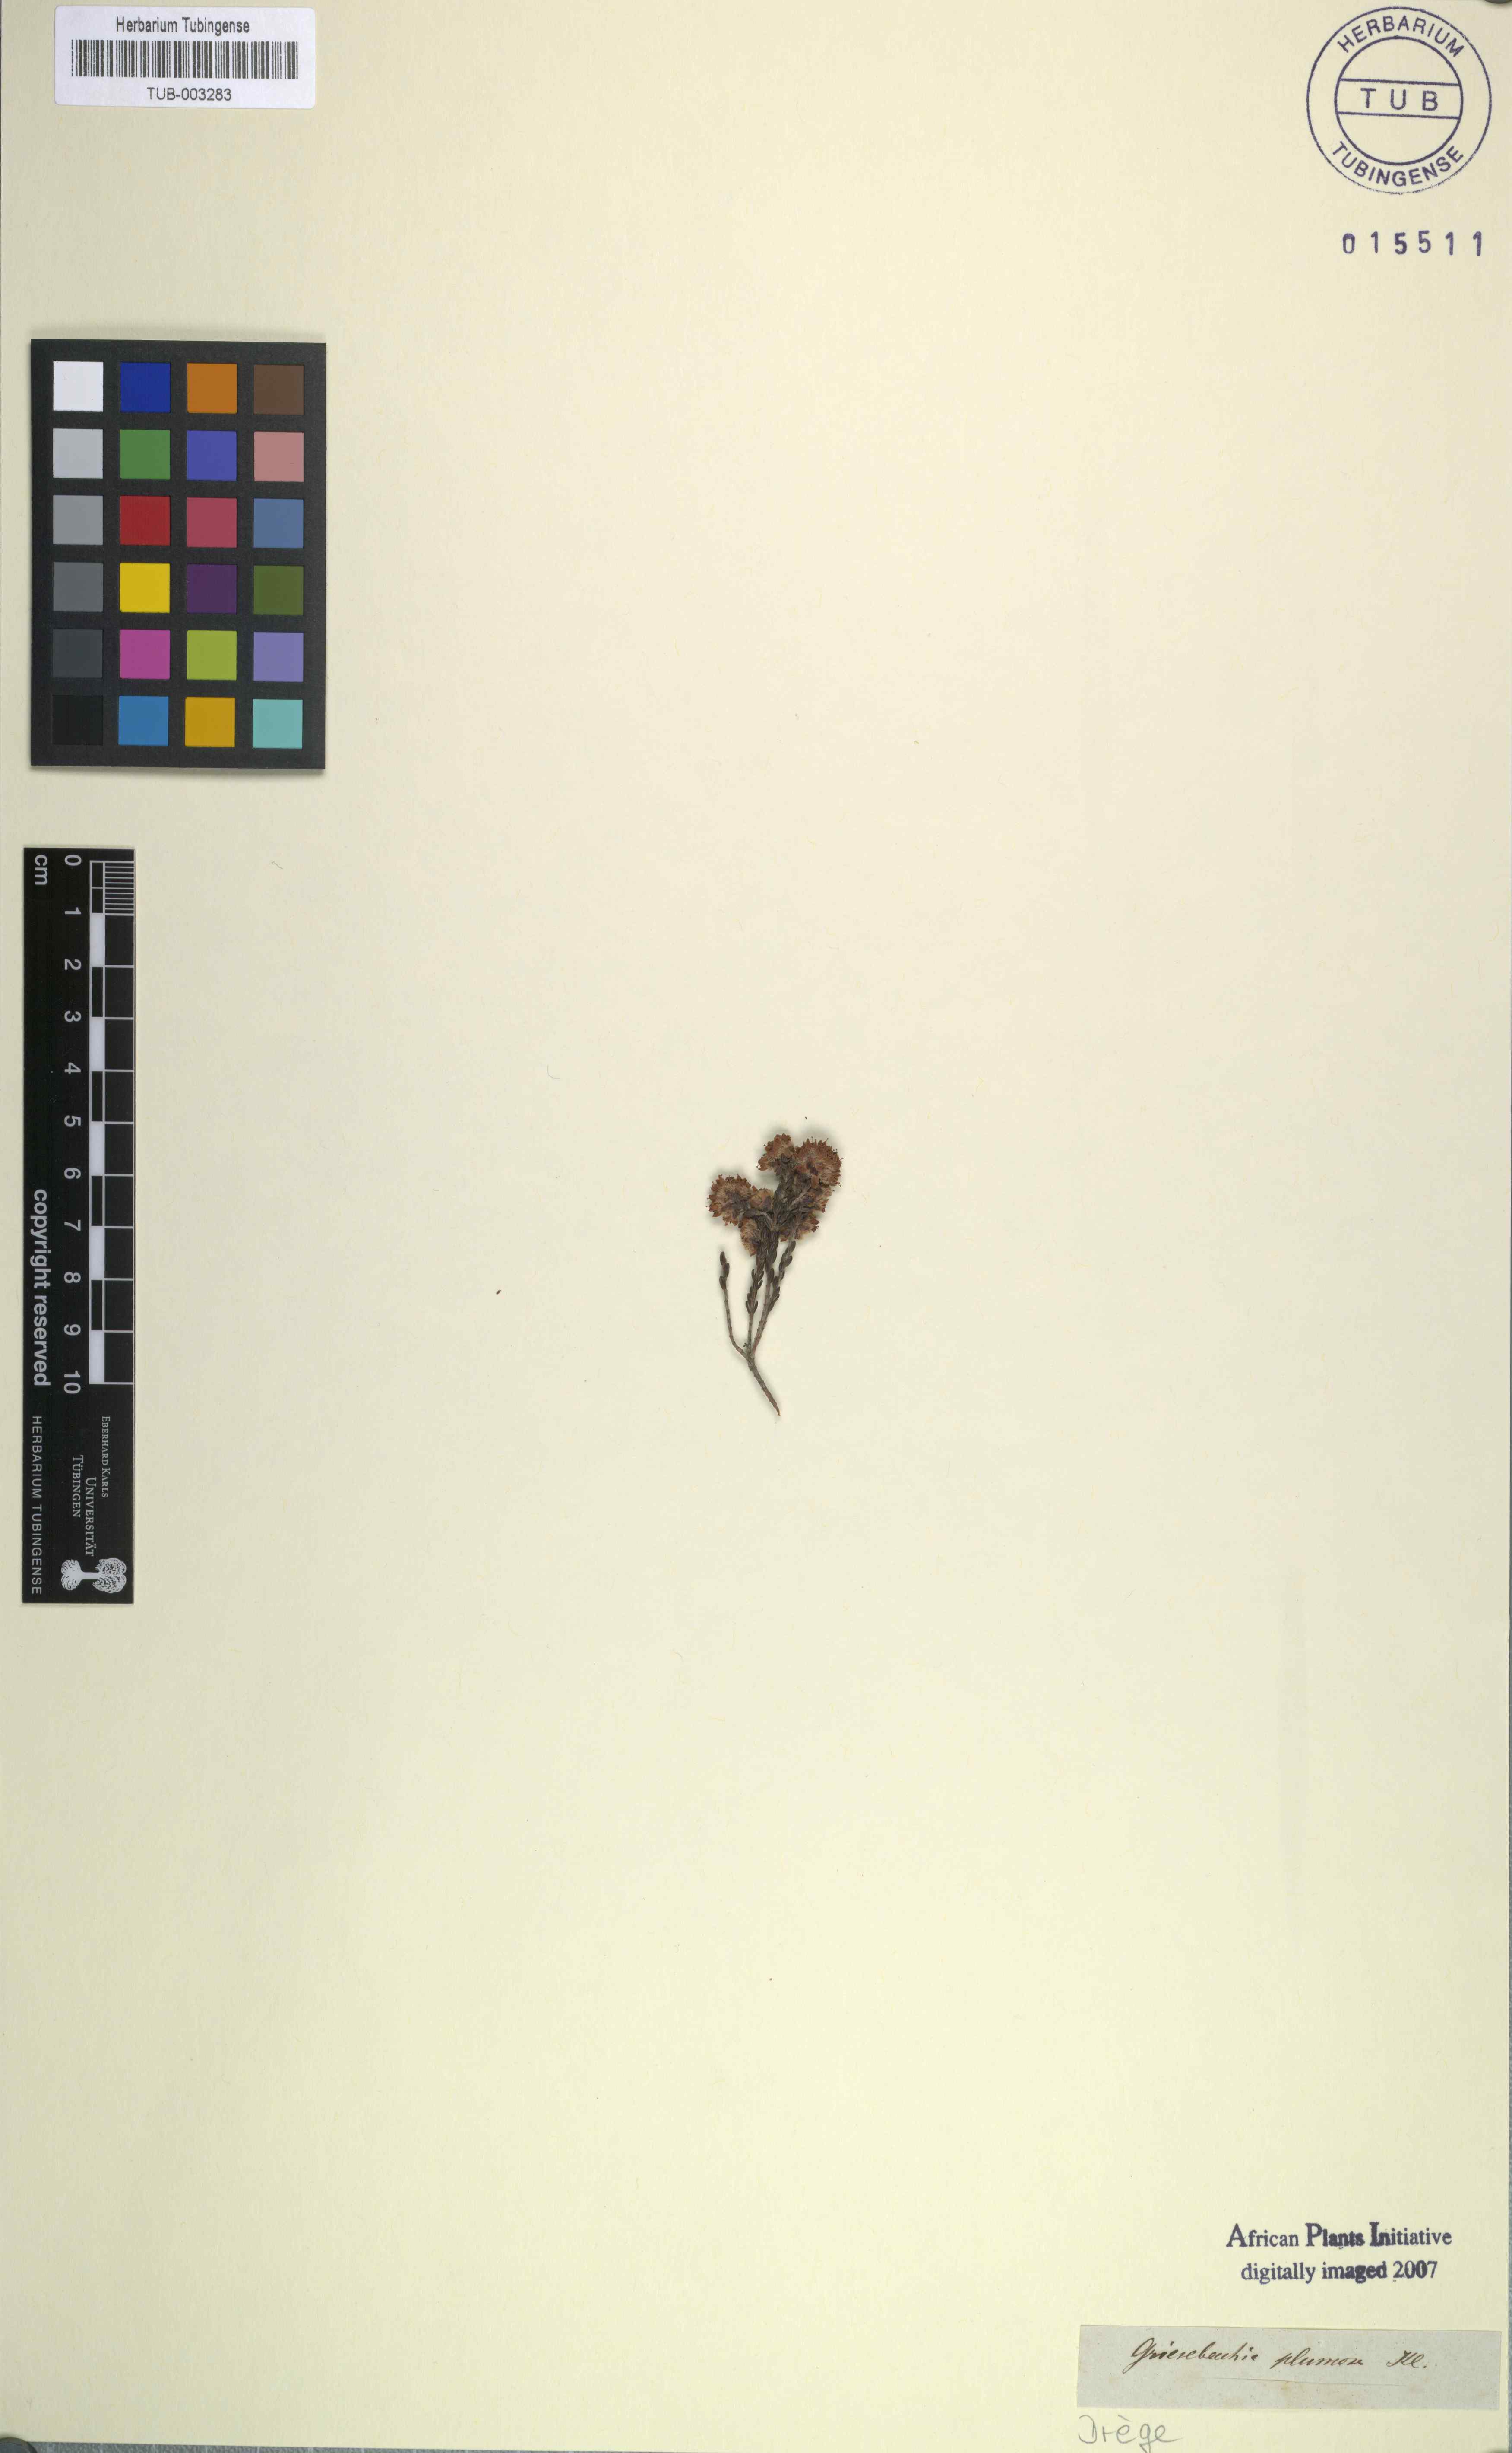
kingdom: Plantae
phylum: Tracheophyta
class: Magnoliopsida
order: Ericales
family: Ericaceae
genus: Erica
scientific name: Erica plumosa
